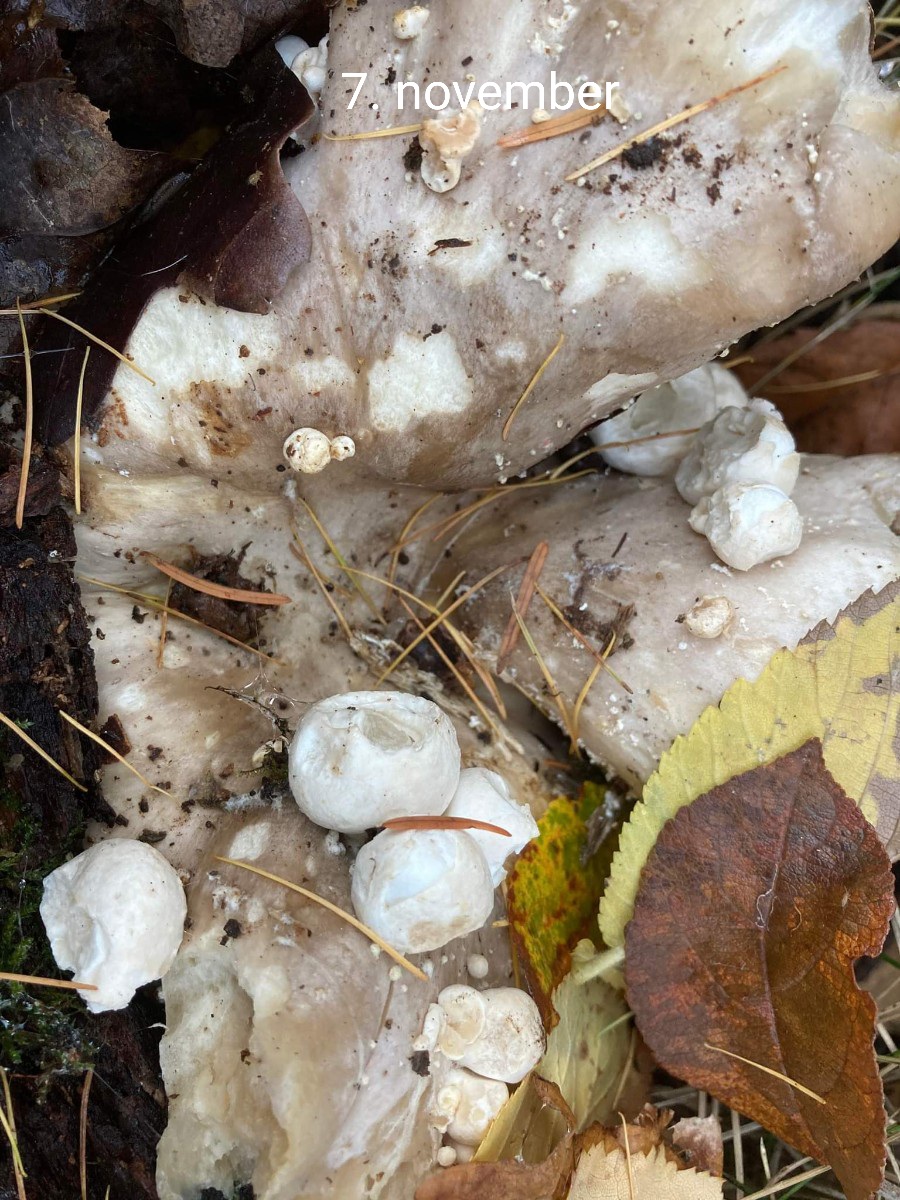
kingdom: Fungi
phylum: Basidiomycota
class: Agaricomycetes
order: Agaricales
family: Pluteaceae
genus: Volvariella
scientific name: Volvariella surrecta
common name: snyltende posesvamp
